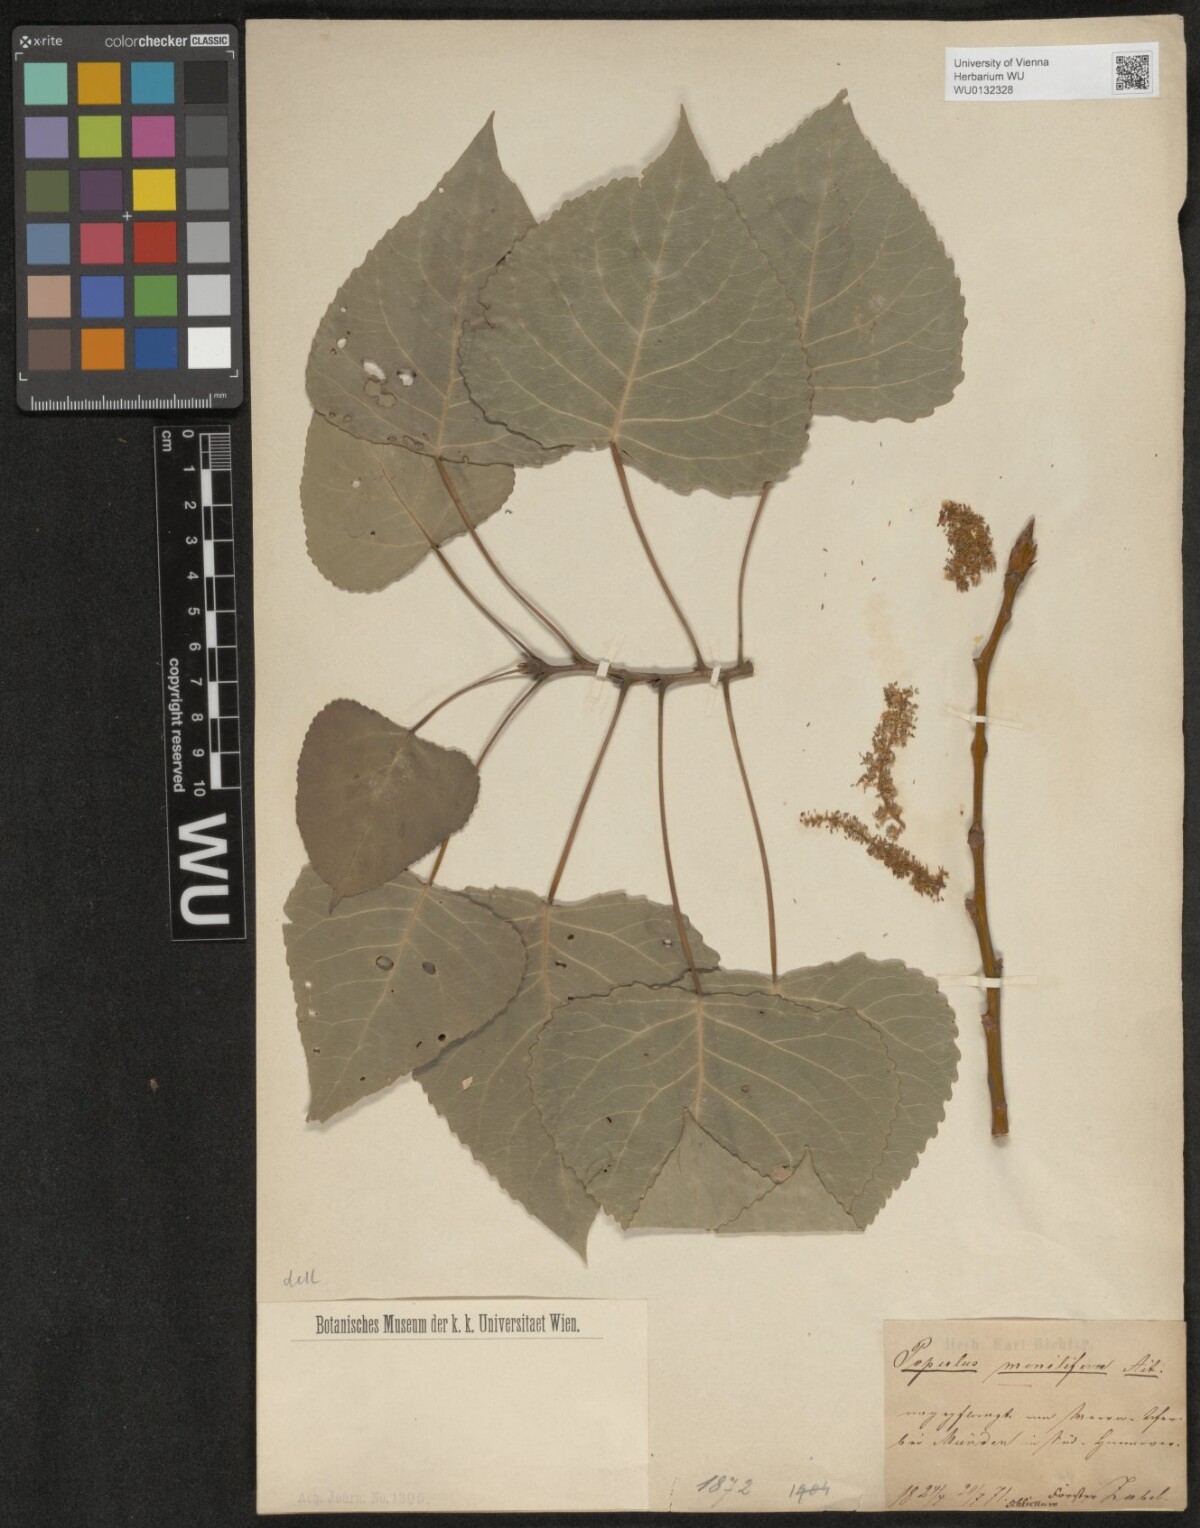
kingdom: Plantae
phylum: Tracheophyta
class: Magnoliopsida
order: Malpighiales
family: Salicaceae
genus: Populus
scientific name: Populus deltoides
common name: Eastern cottonwood
